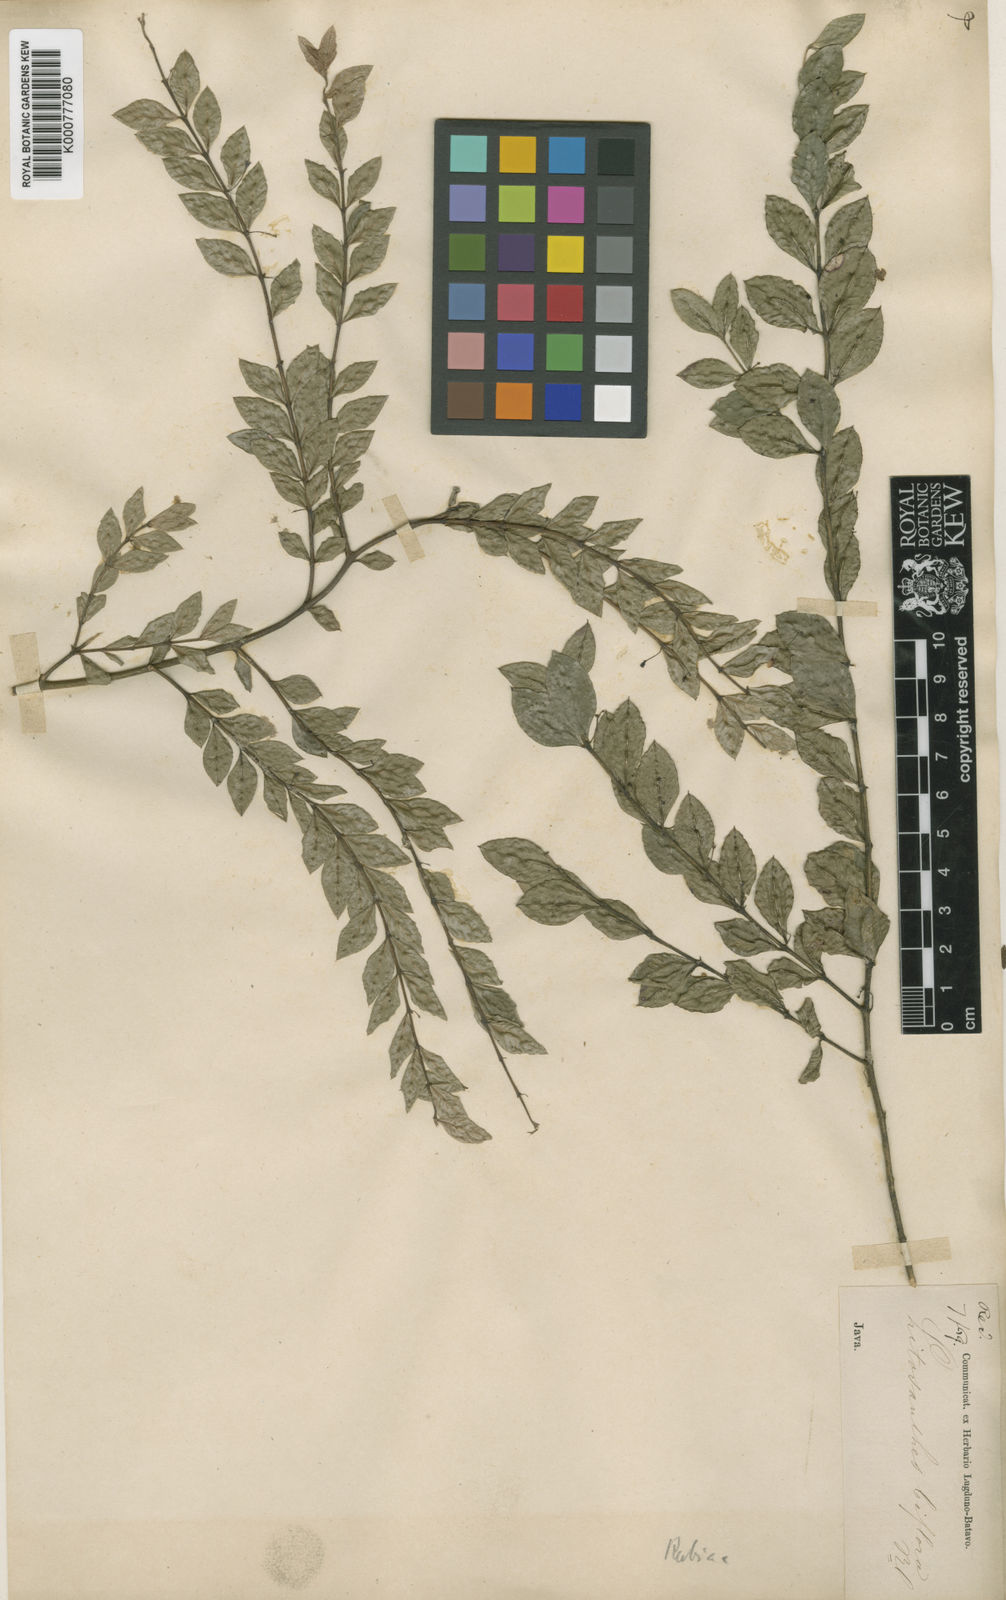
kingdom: Plantae
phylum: Tracheophyta
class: Magnoliopsida
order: Gentianales
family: Rubiaceae
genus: Lasianthus
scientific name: Lasianthus biflorus
